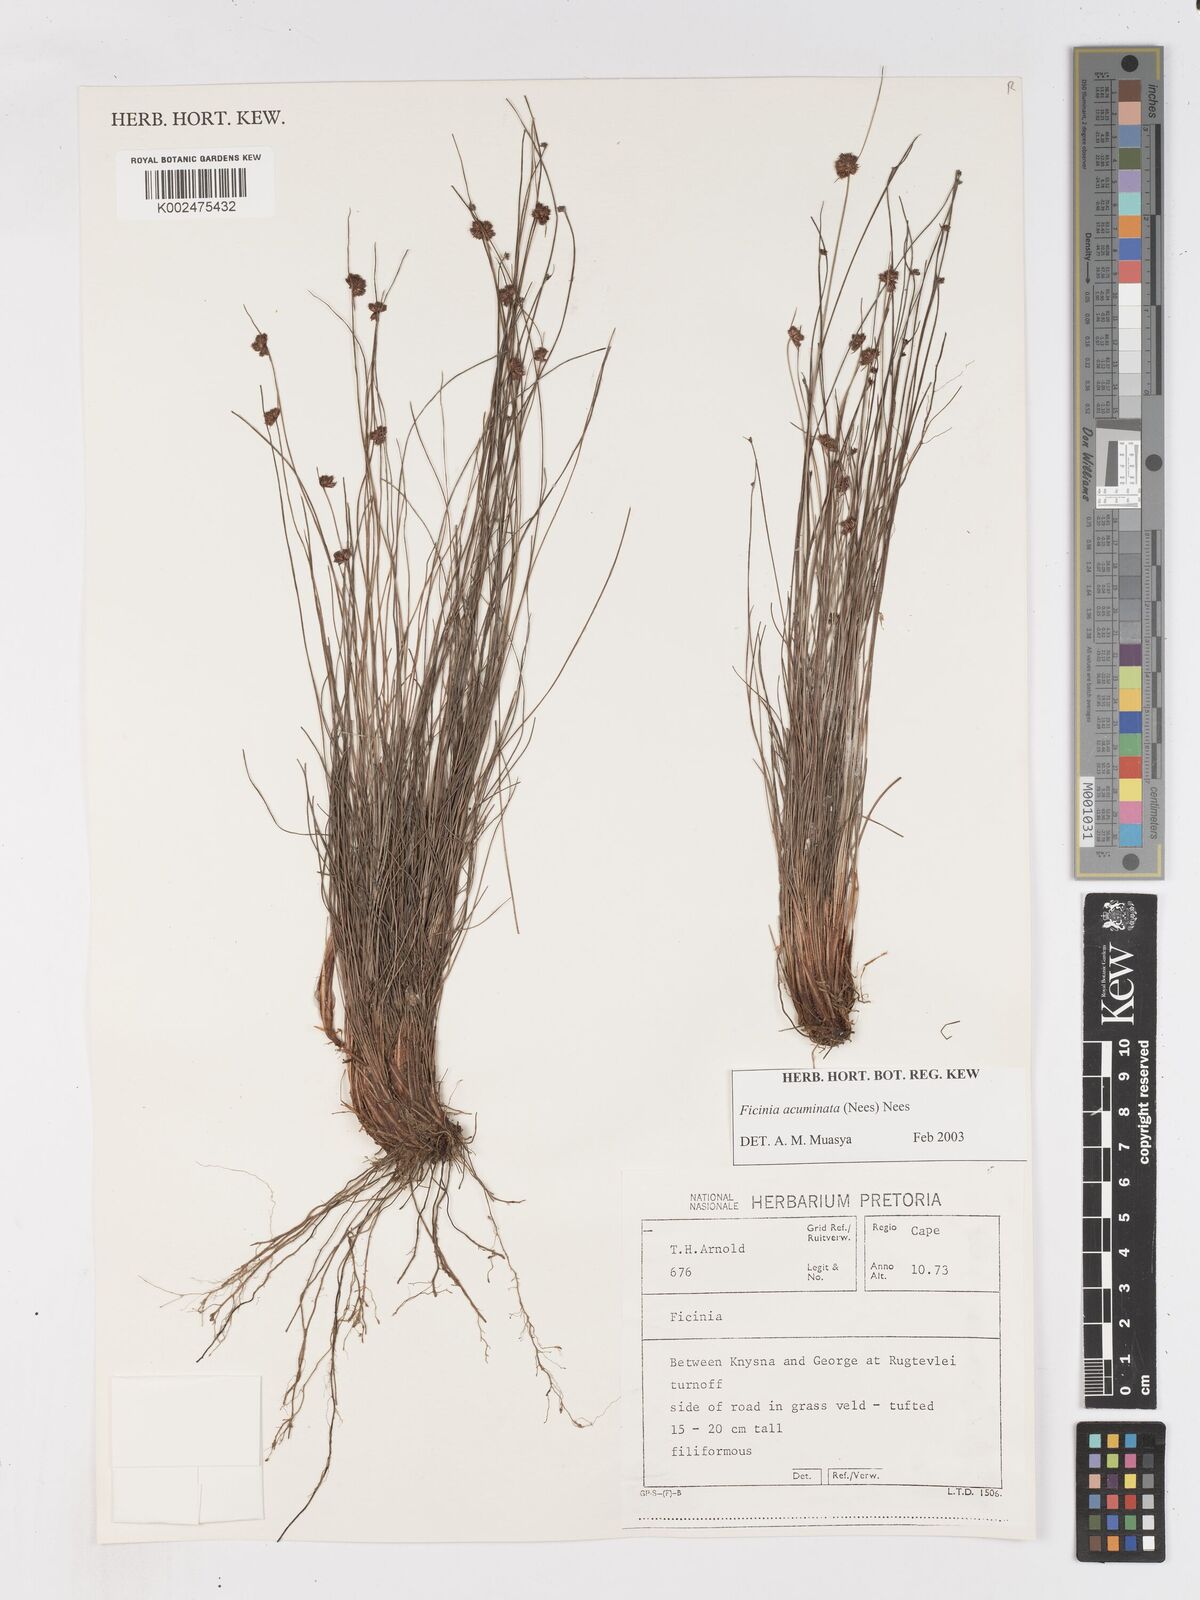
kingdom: Plantae
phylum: Tracheophyta
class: Liliopsida
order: Poales
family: Cyperaceae
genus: Ficinia
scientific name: Ficinia acuminata
